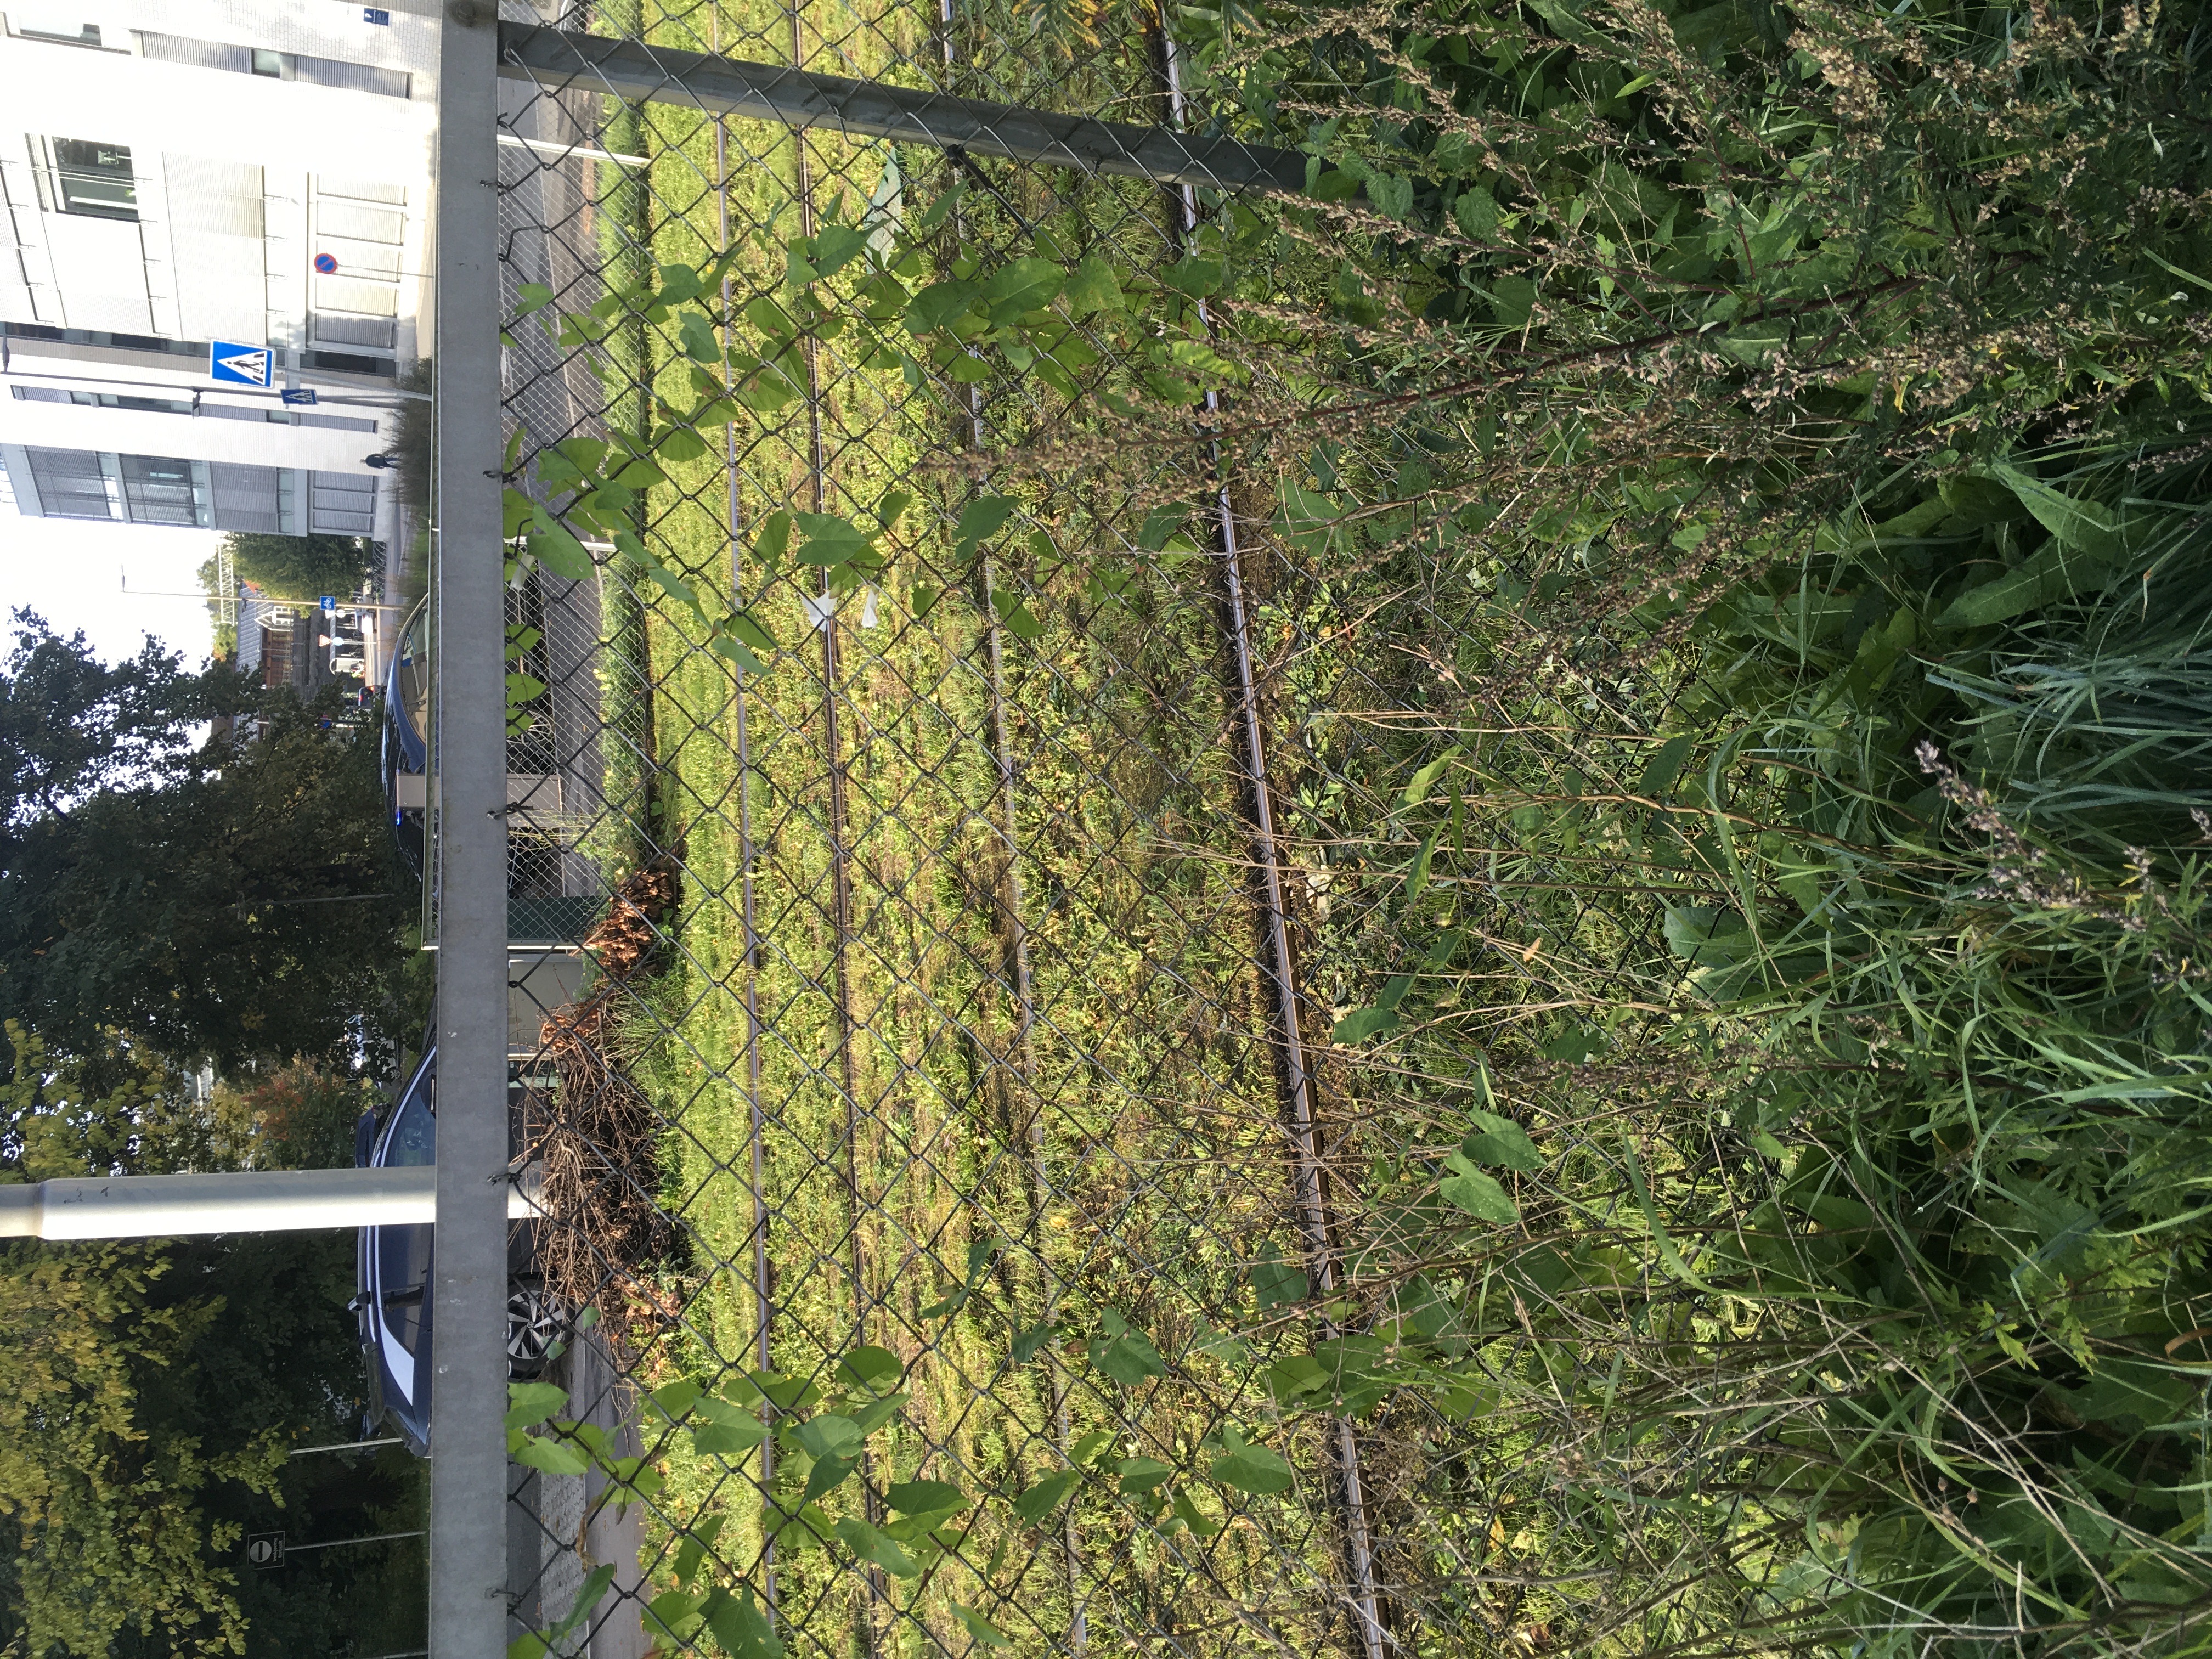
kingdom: Plantae
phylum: Tracheophyta
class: Magnoliopsida
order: Solanales
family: Convolvulaceae
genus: Calystegia
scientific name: Calystegia sepium
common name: prydstrandvindel
